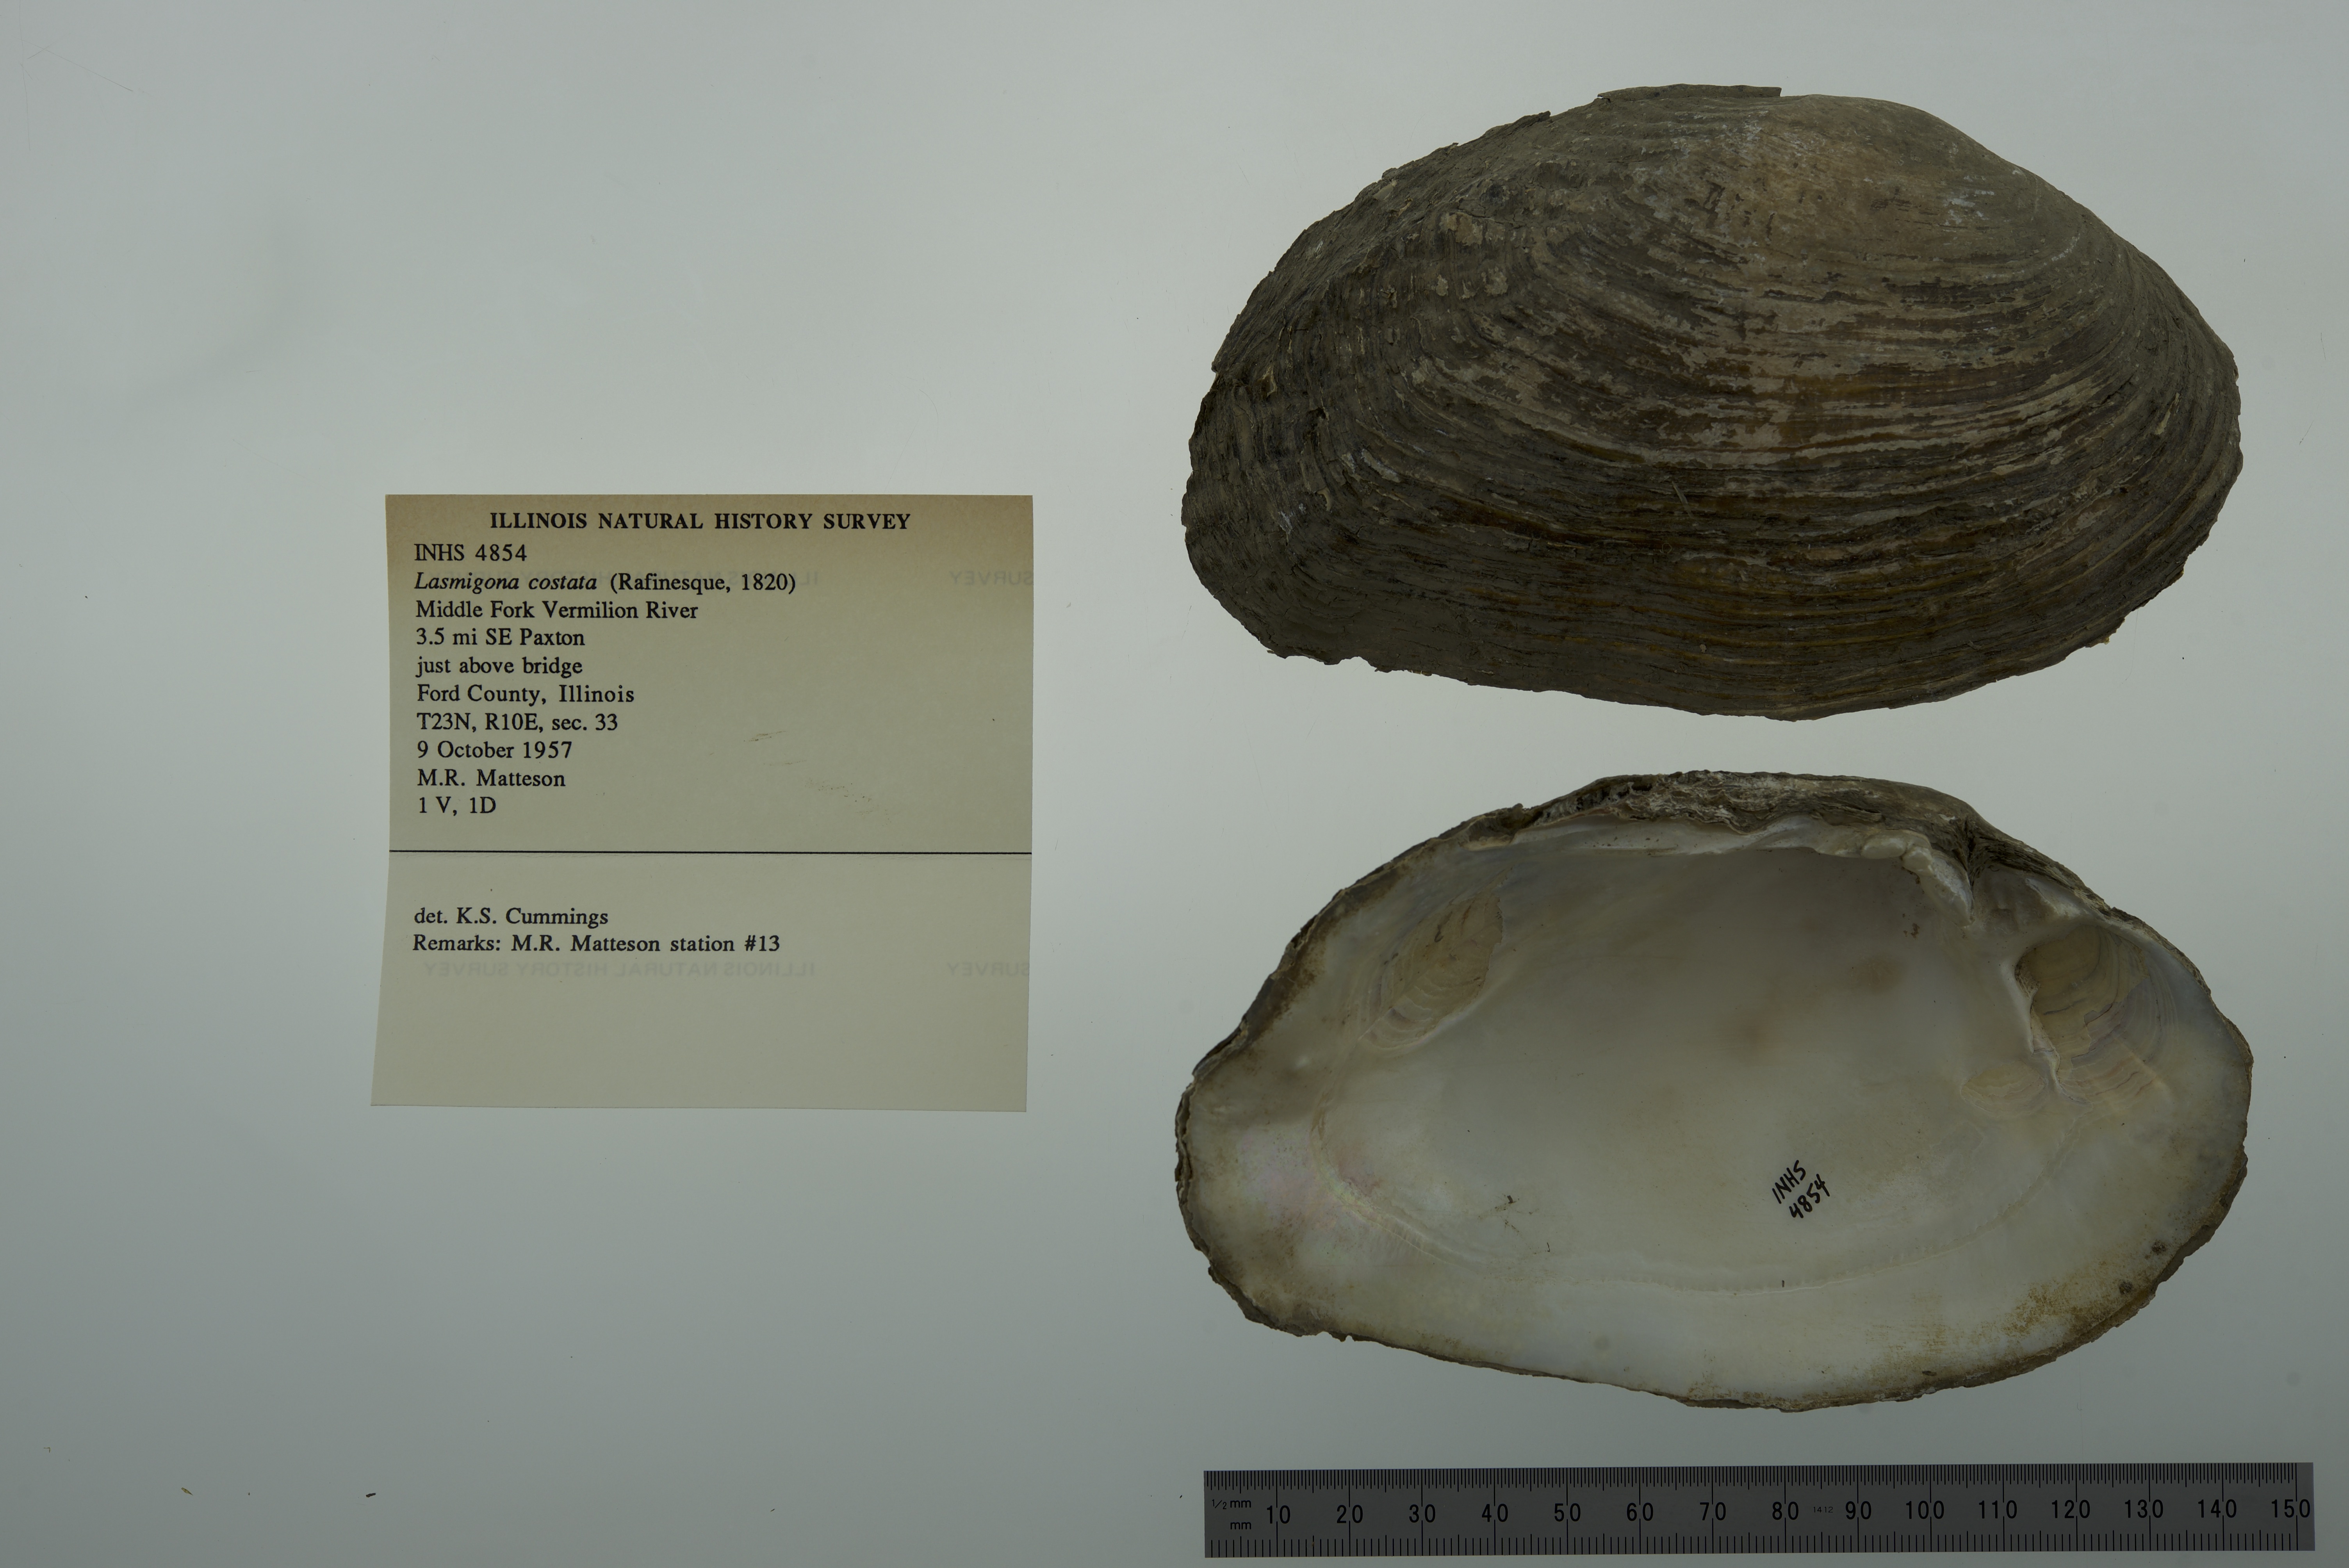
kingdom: Animalia
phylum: Mollusca
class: Bivalvia
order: Unionida
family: Unionidae
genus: Lasmigona
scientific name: Lasmigona costata
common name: Flutedshell
